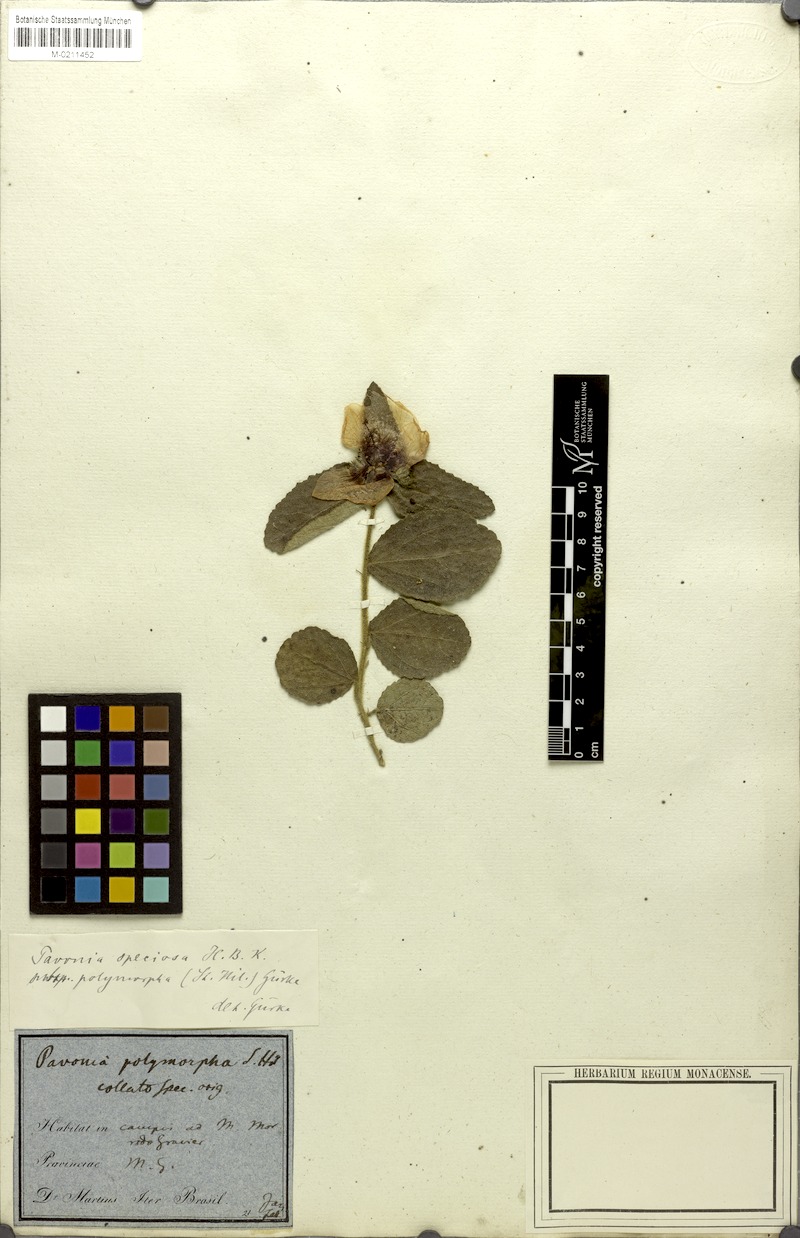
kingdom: Plantae
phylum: Tracheophyta
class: Magnoliopsida
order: Malvales
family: Malvaceae
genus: Peltaea
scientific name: Peltaea polymorpha
